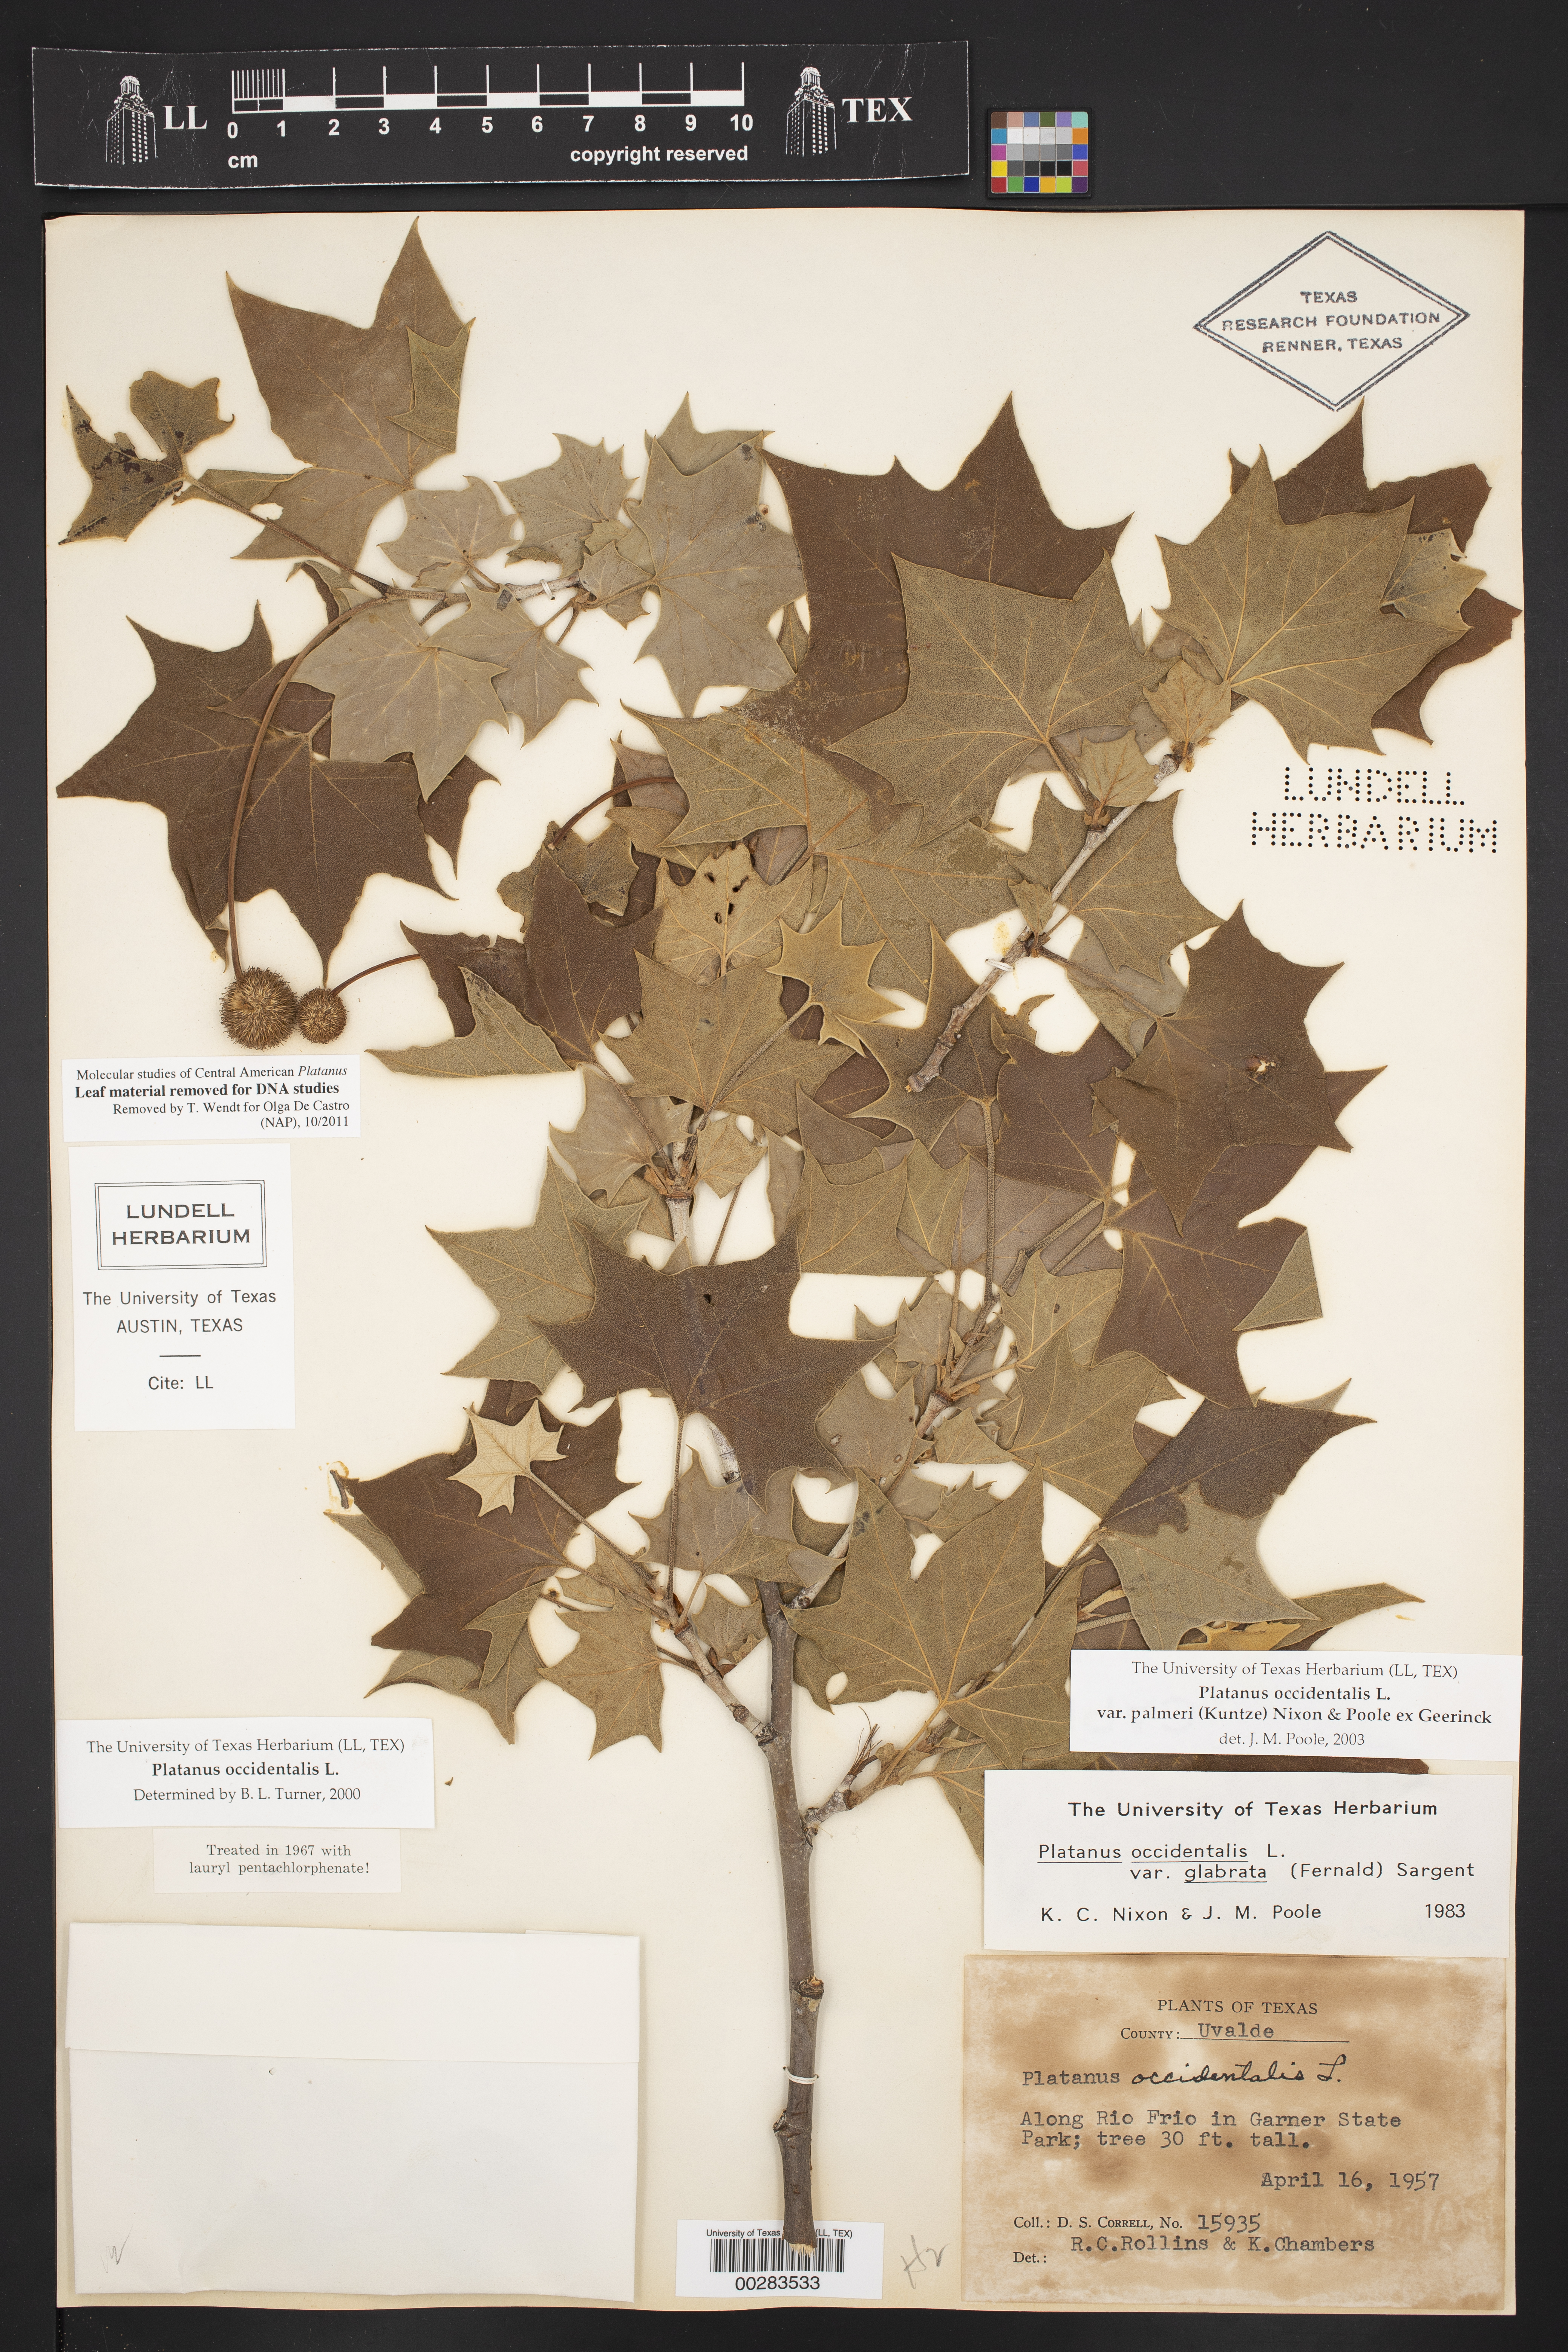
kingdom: Plantae
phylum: Tracheophyta
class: Magnoliopsida
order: Proteales
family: Platanaceae
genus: Platanus
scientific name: Platanus occidentalis
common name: American sycamore
